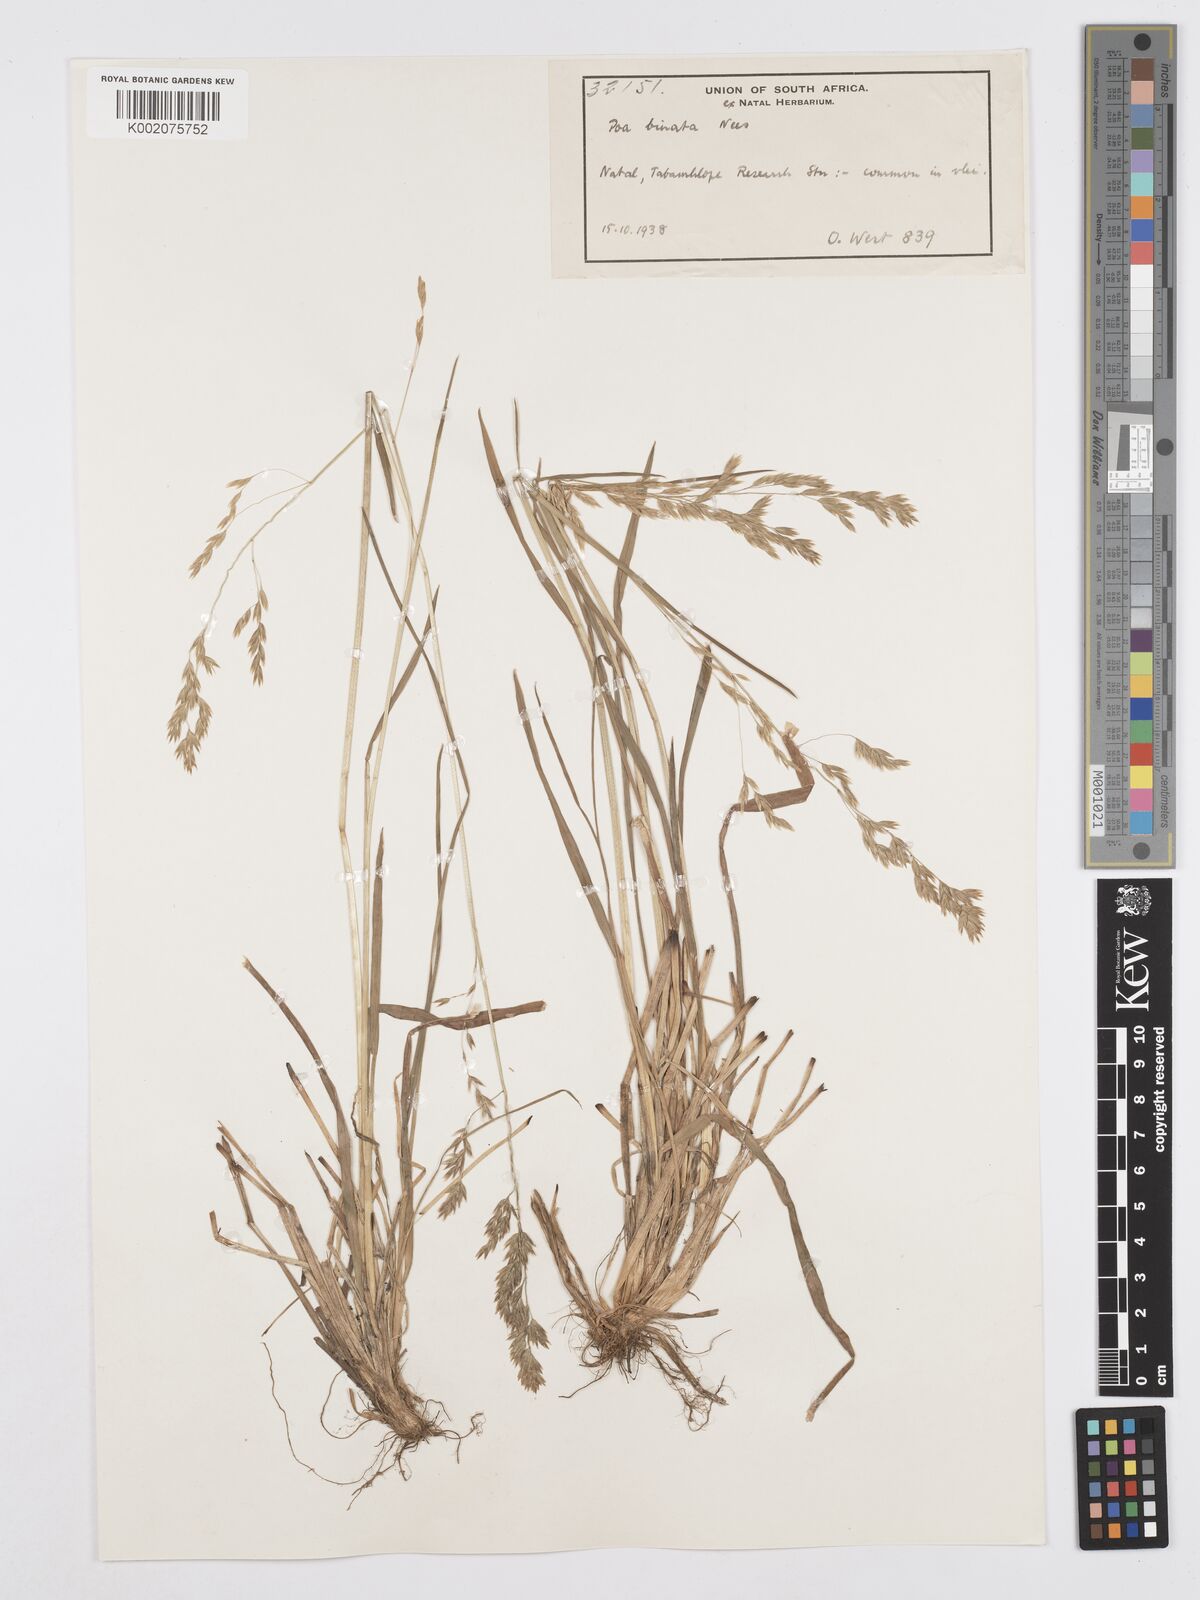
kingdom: Plantae
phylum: Tracheophyta
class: Liliopsida
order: Poales
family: Poaceae
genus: Poa
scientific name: Poa binata
